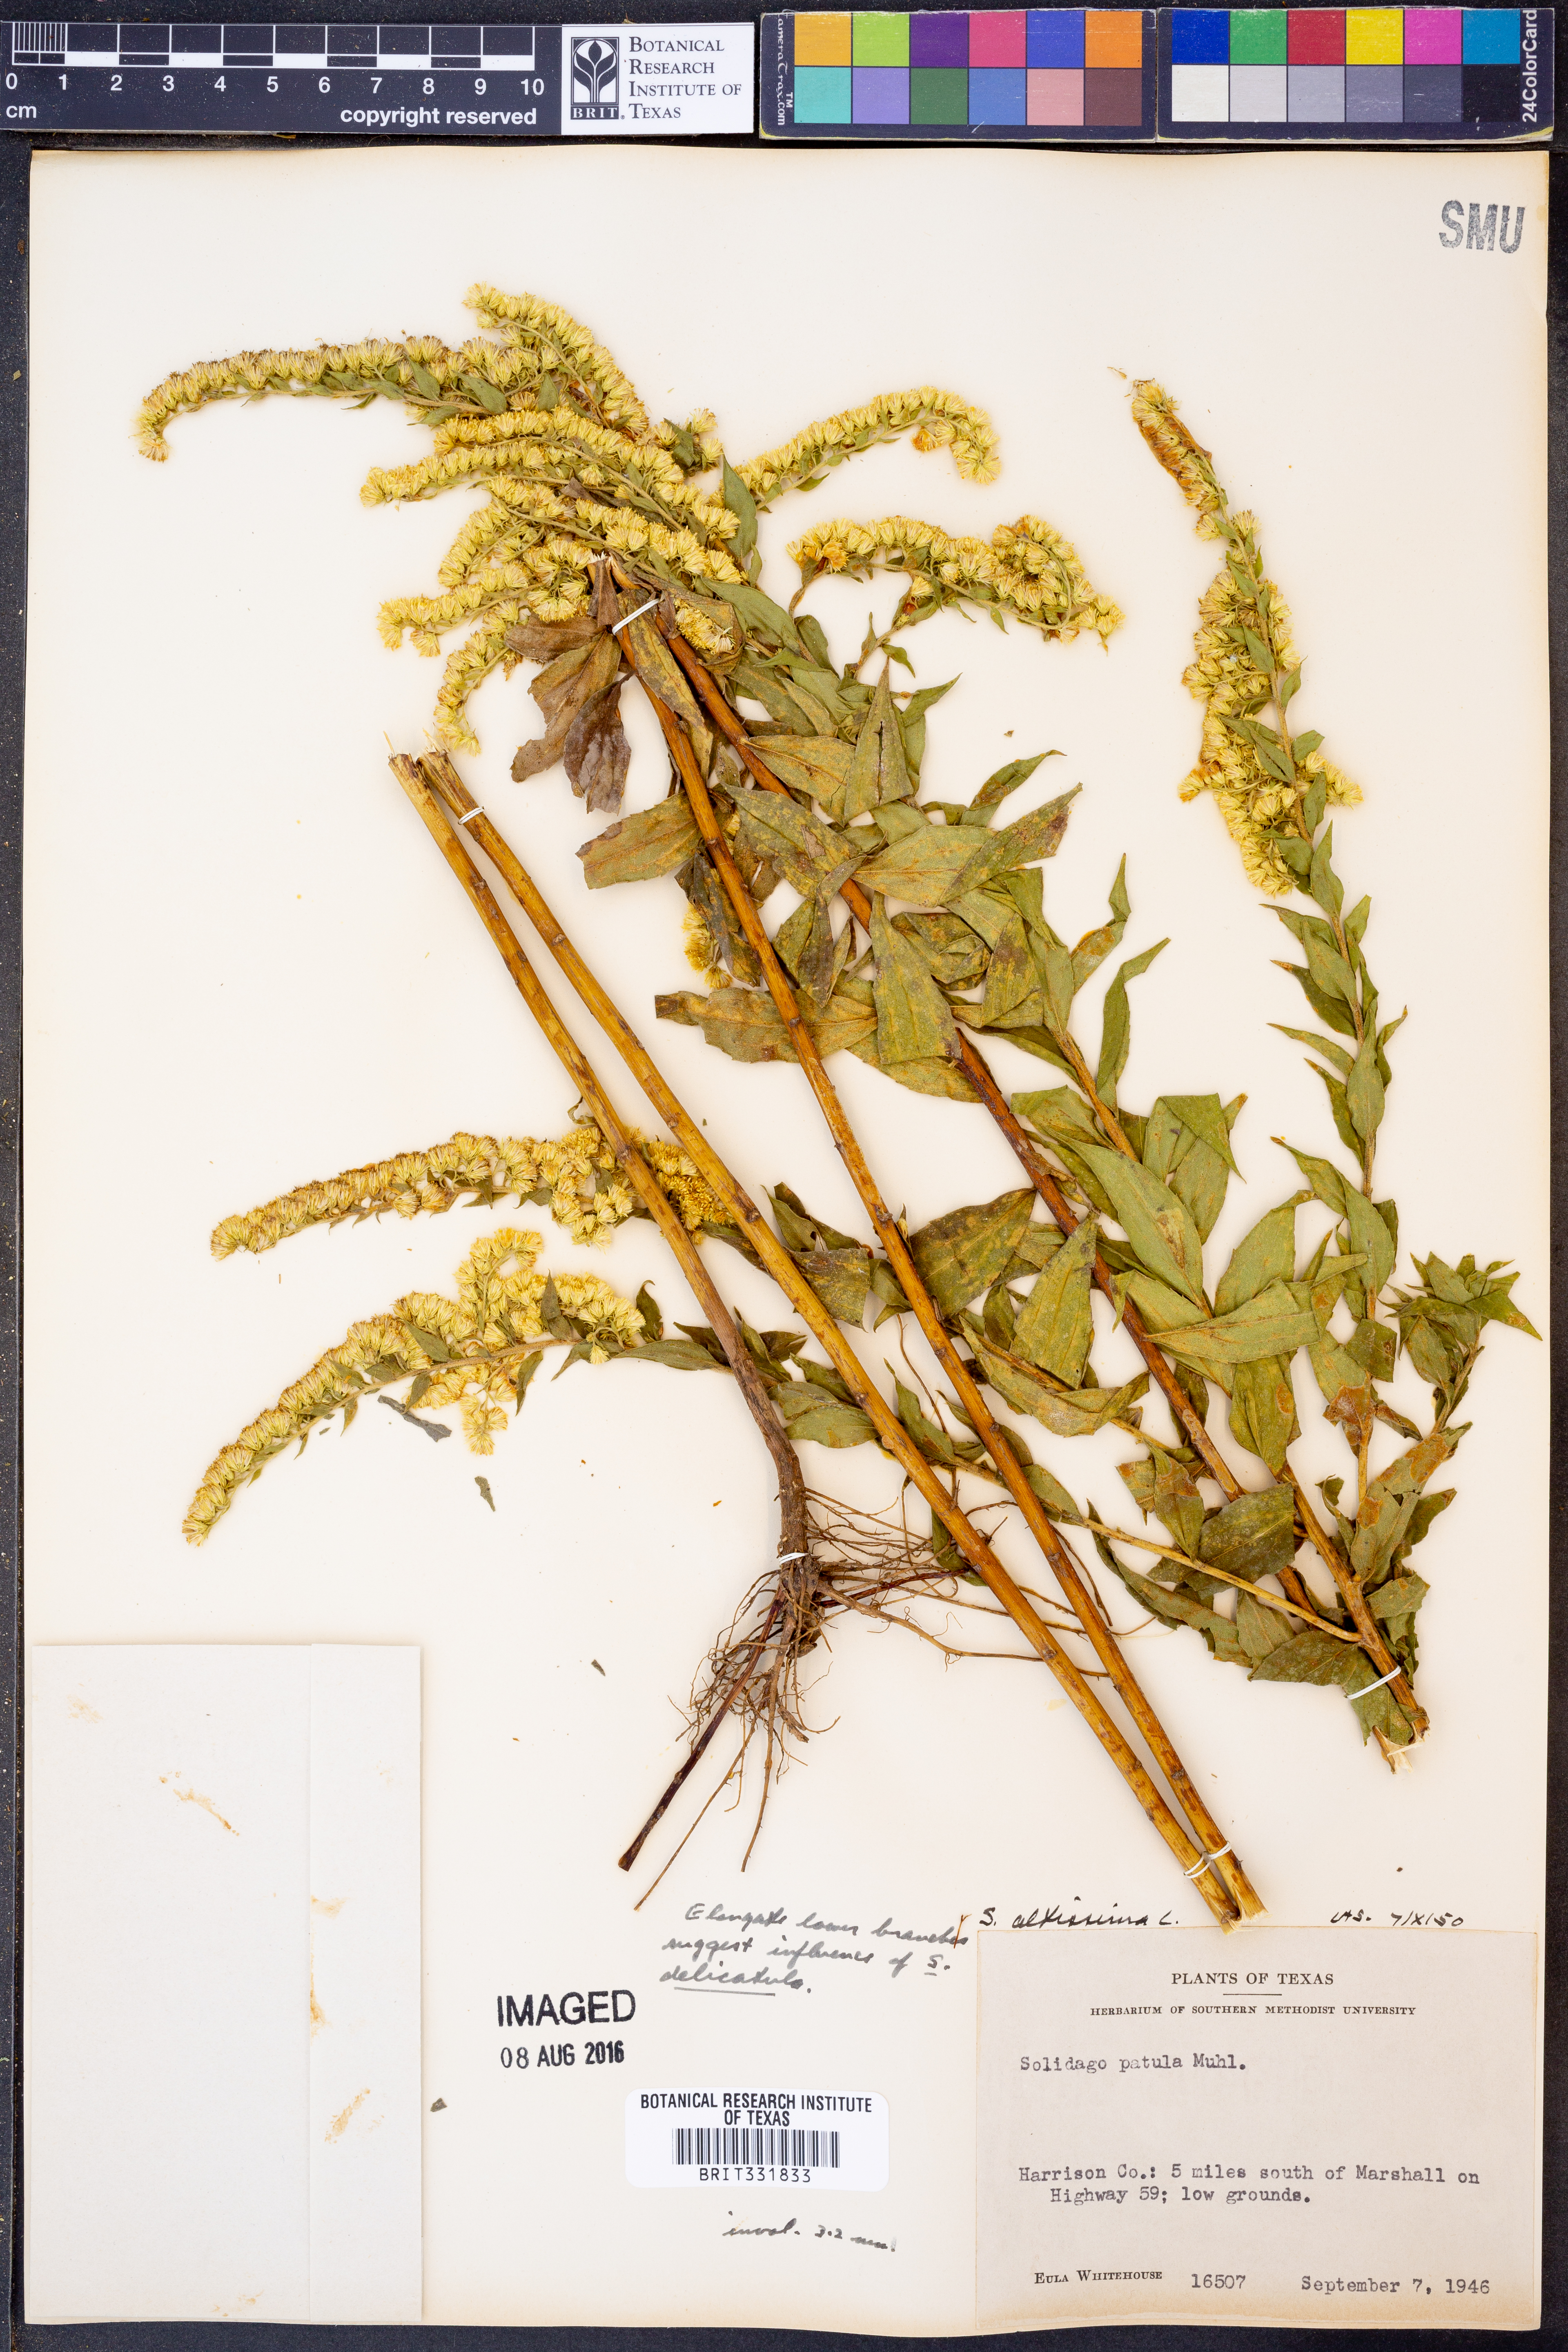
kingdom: Plantae
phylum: Tracheophyta
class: Magnoliopsida
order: Asterales
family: Asteraceae
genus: Solidago
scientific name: Solidago altissima
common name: Late goldenrod
